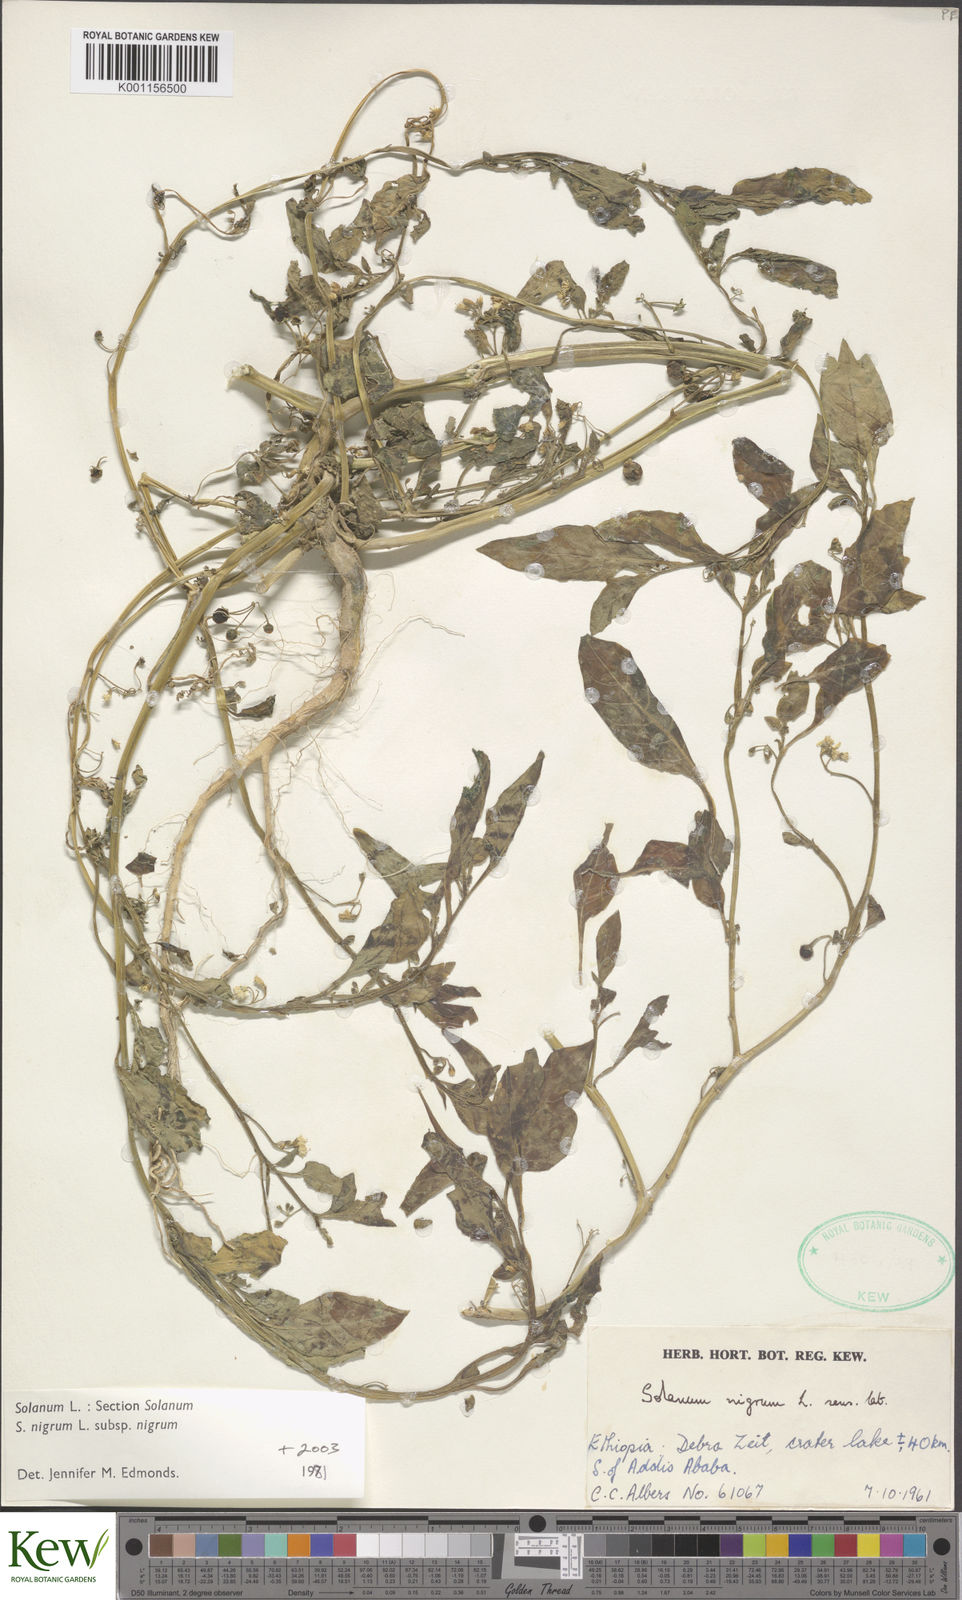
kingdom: Plantae
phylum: Tracheophyta
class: Magnoliopsida
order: Solanales
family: Solanaceae
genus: Solanum
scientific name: Solanum tarderemotum
